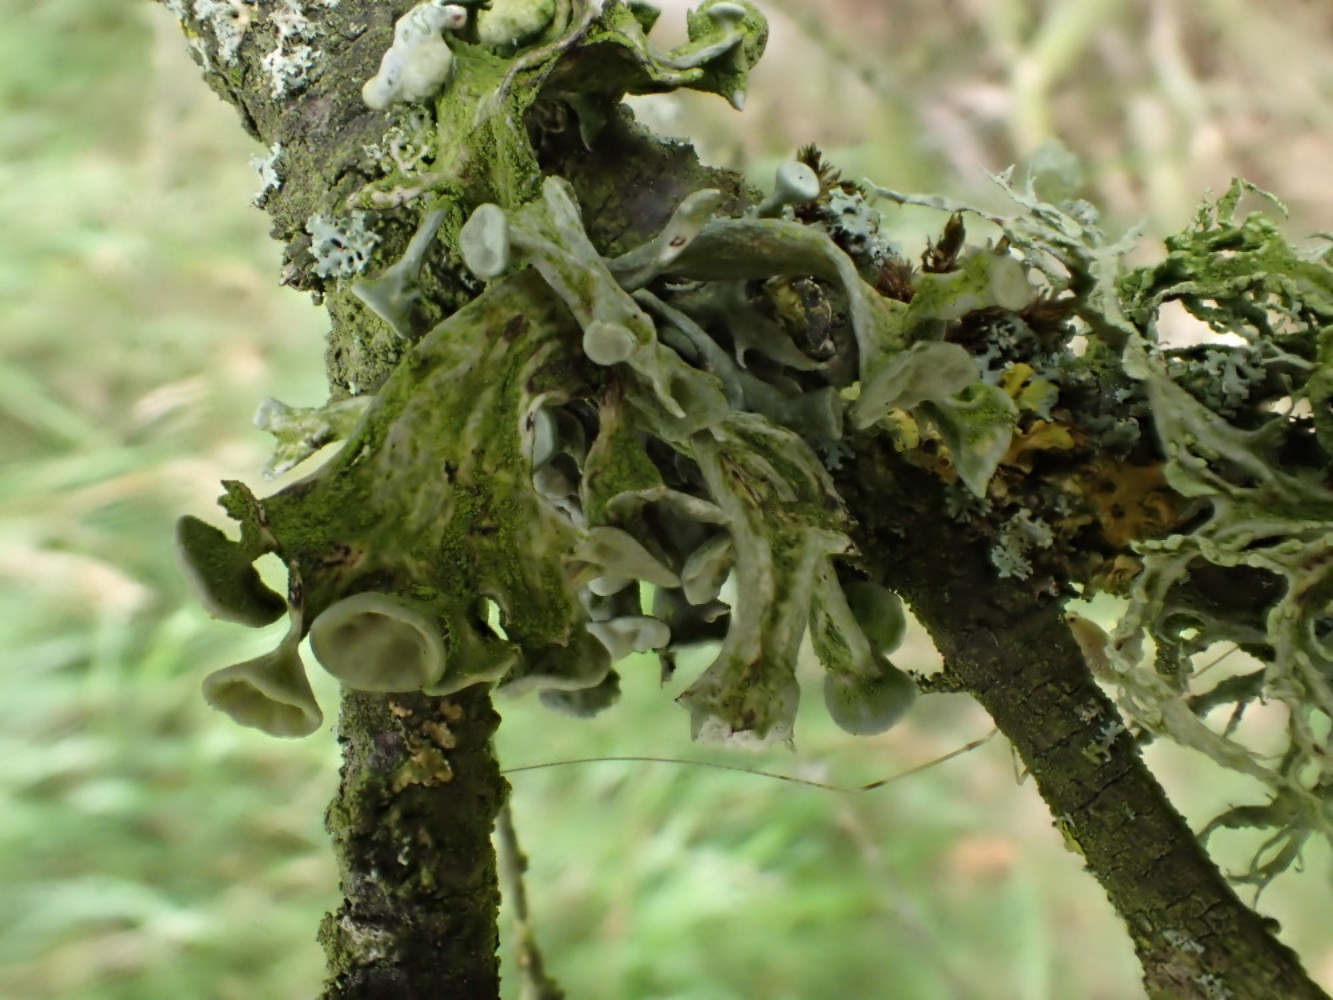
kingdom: Fungi
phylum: Ascomycota
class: Lecanoromycetes
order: Lecanorales
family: Ramalinaceae
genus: Ramalina
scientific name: Ramalina fastigiata
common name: tue-grenlav
